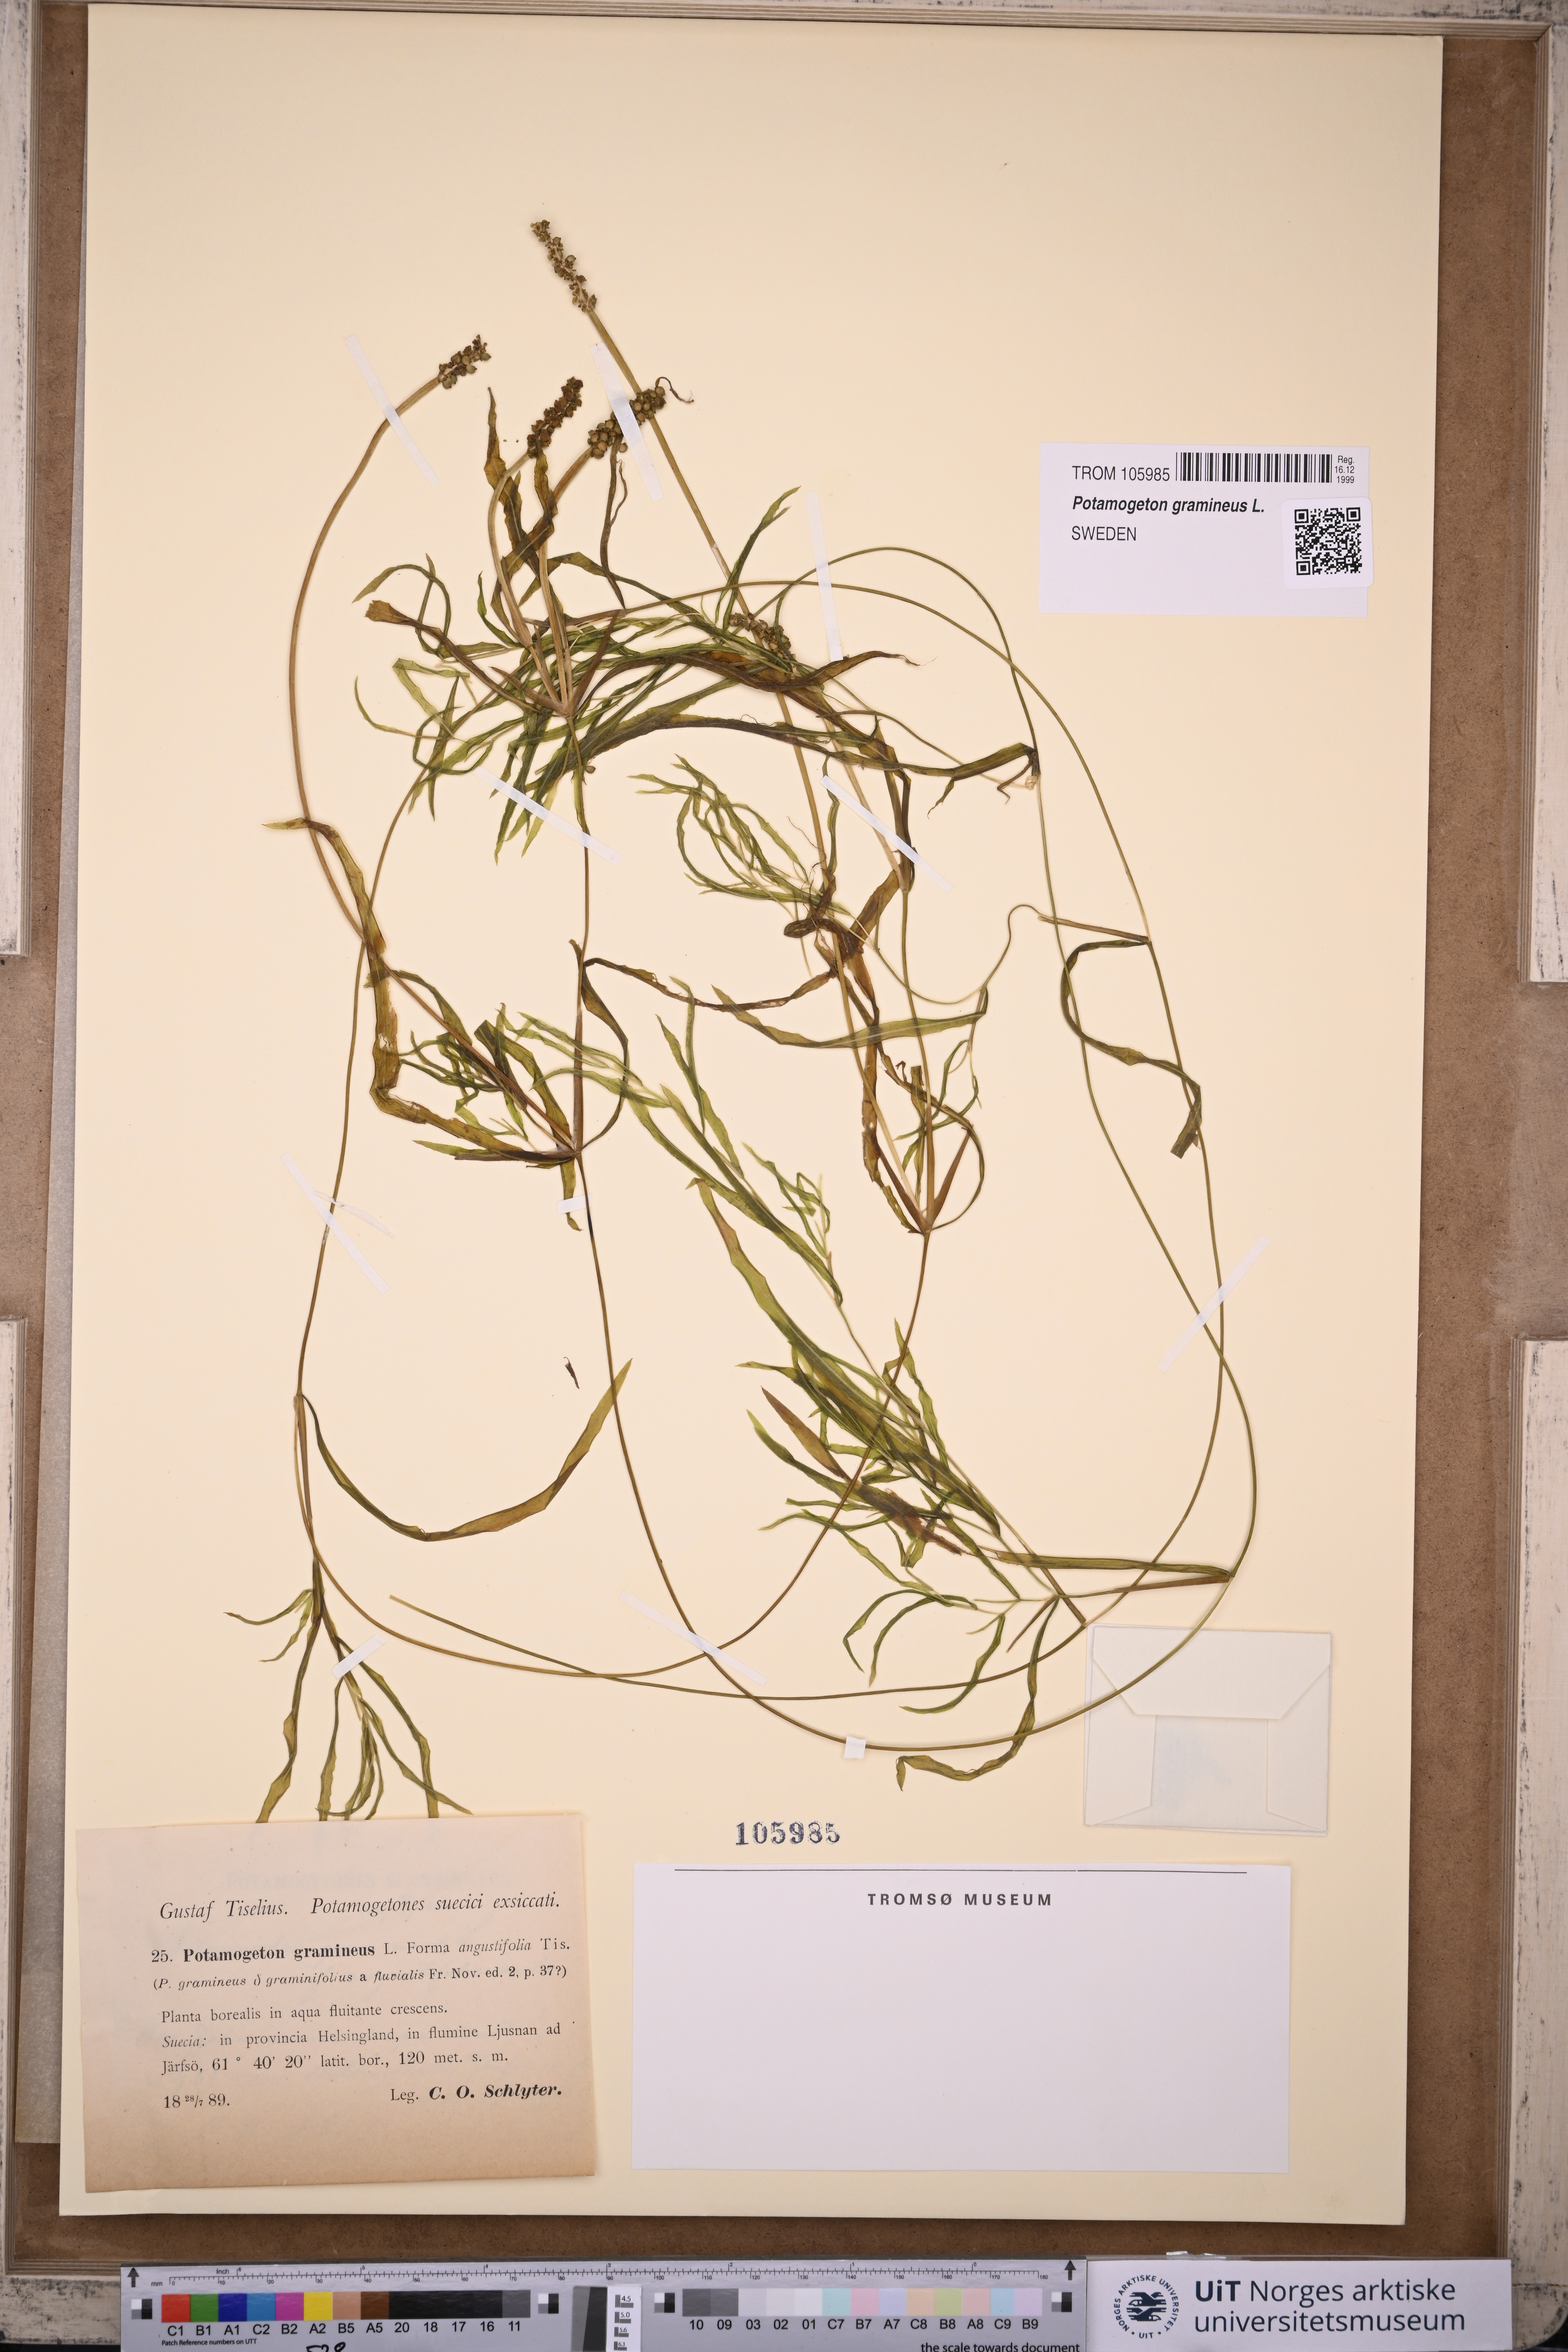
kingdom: Plantae
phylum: Tracheophyta
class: Liliopsida
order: Alismatales
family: Potamogetonaceae
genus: Potamogeton
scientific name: Potamogeton gramineus
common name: Various-leaved pondweed
